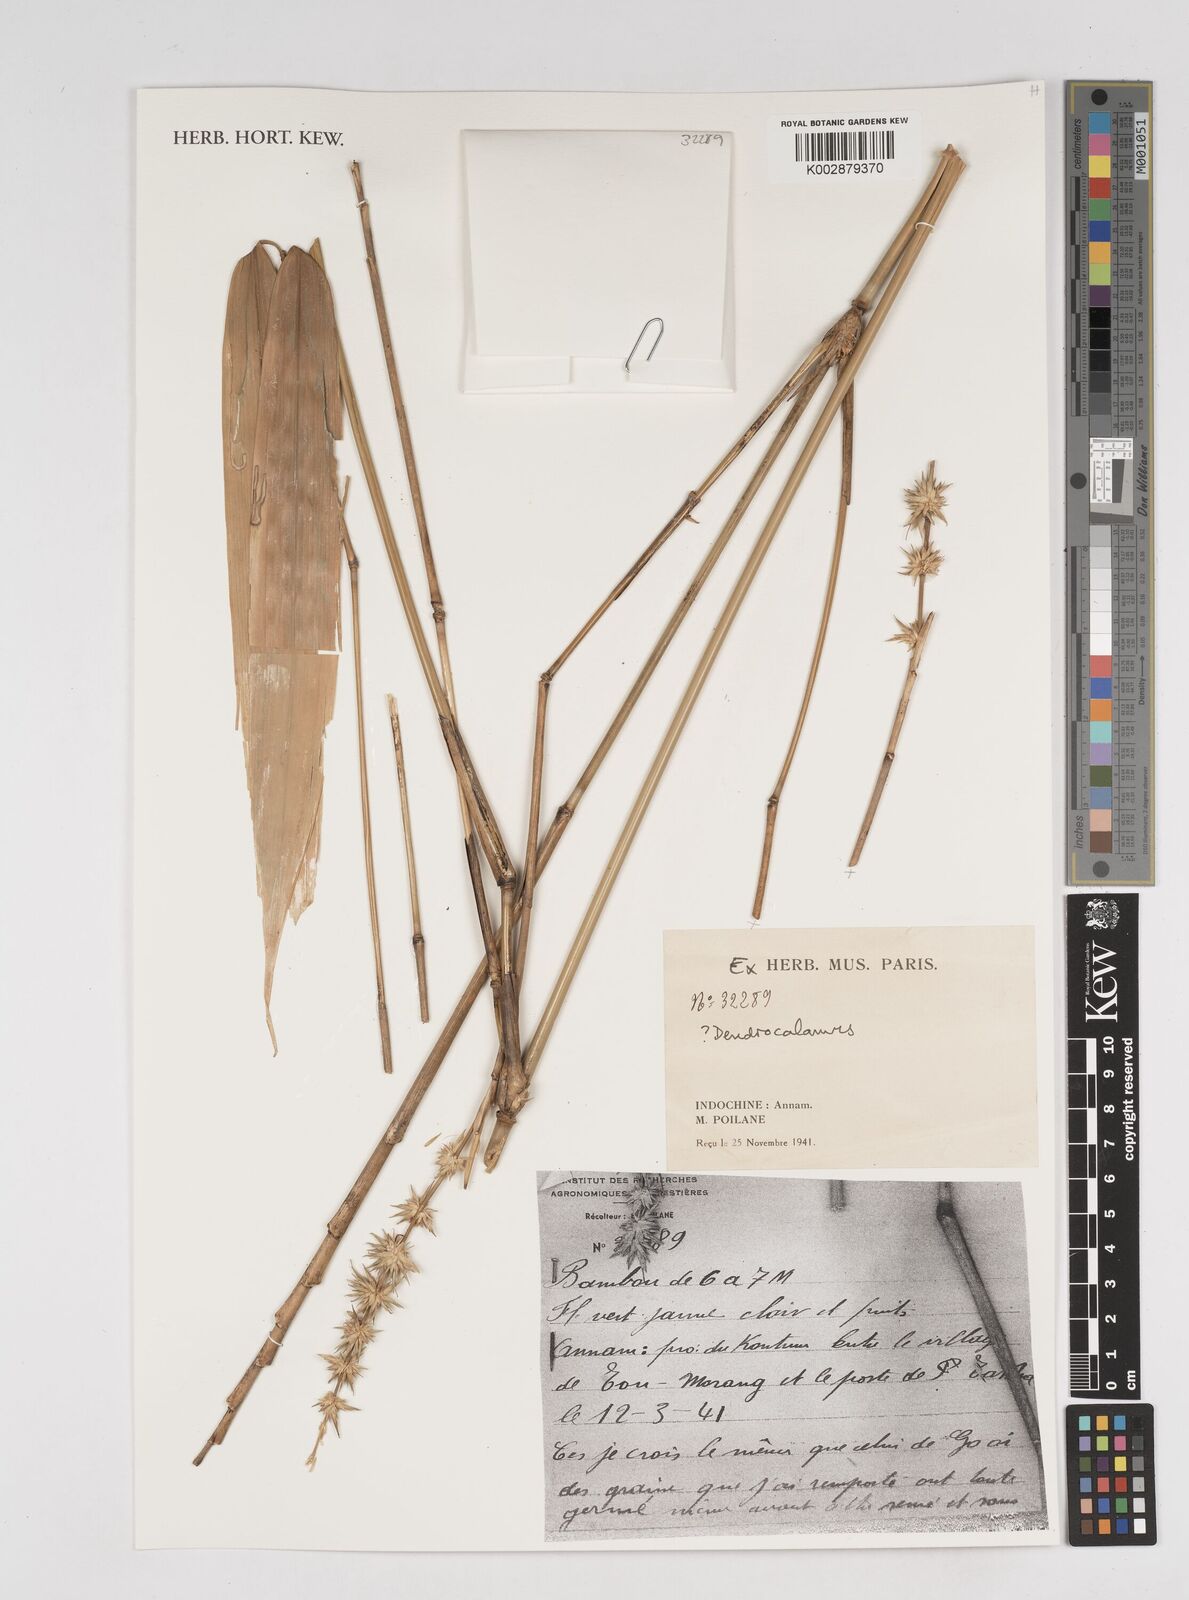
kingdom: Plantae
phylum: Tracheophyta
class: Liliopsida
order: Poales
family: Poaceae
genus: Dendrocalamus
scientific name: Dendrocalamus
